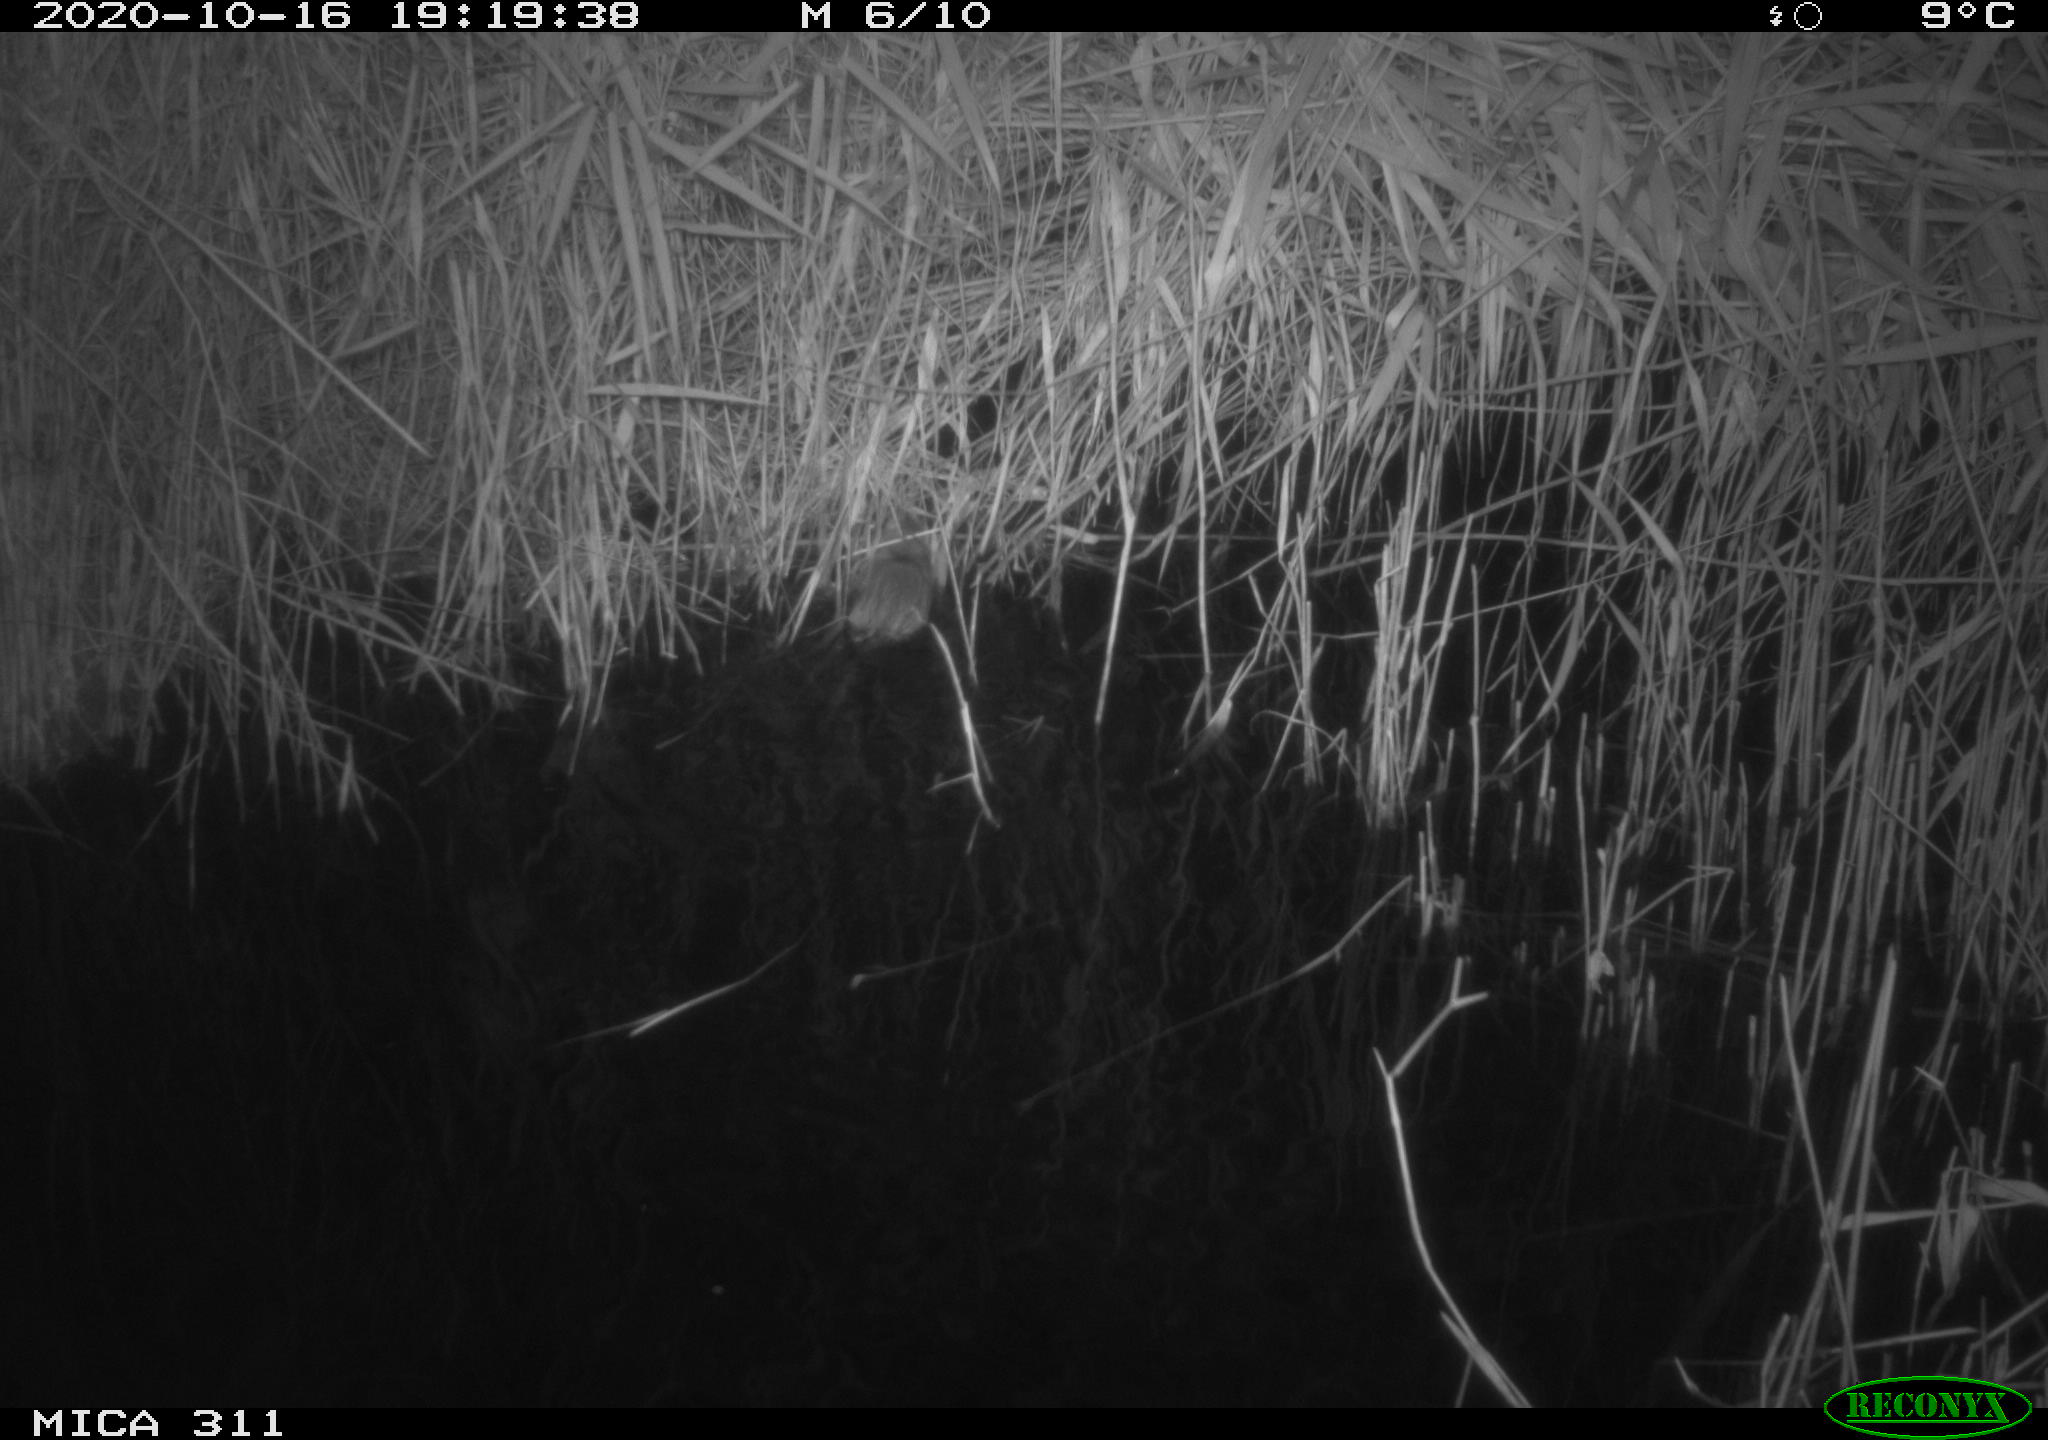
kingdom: Animalia
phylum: Chordata
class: Mammalia
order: Rodentia
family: Muridae
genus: Rattus
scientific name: Rattus norvegicus
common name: Brown rat
